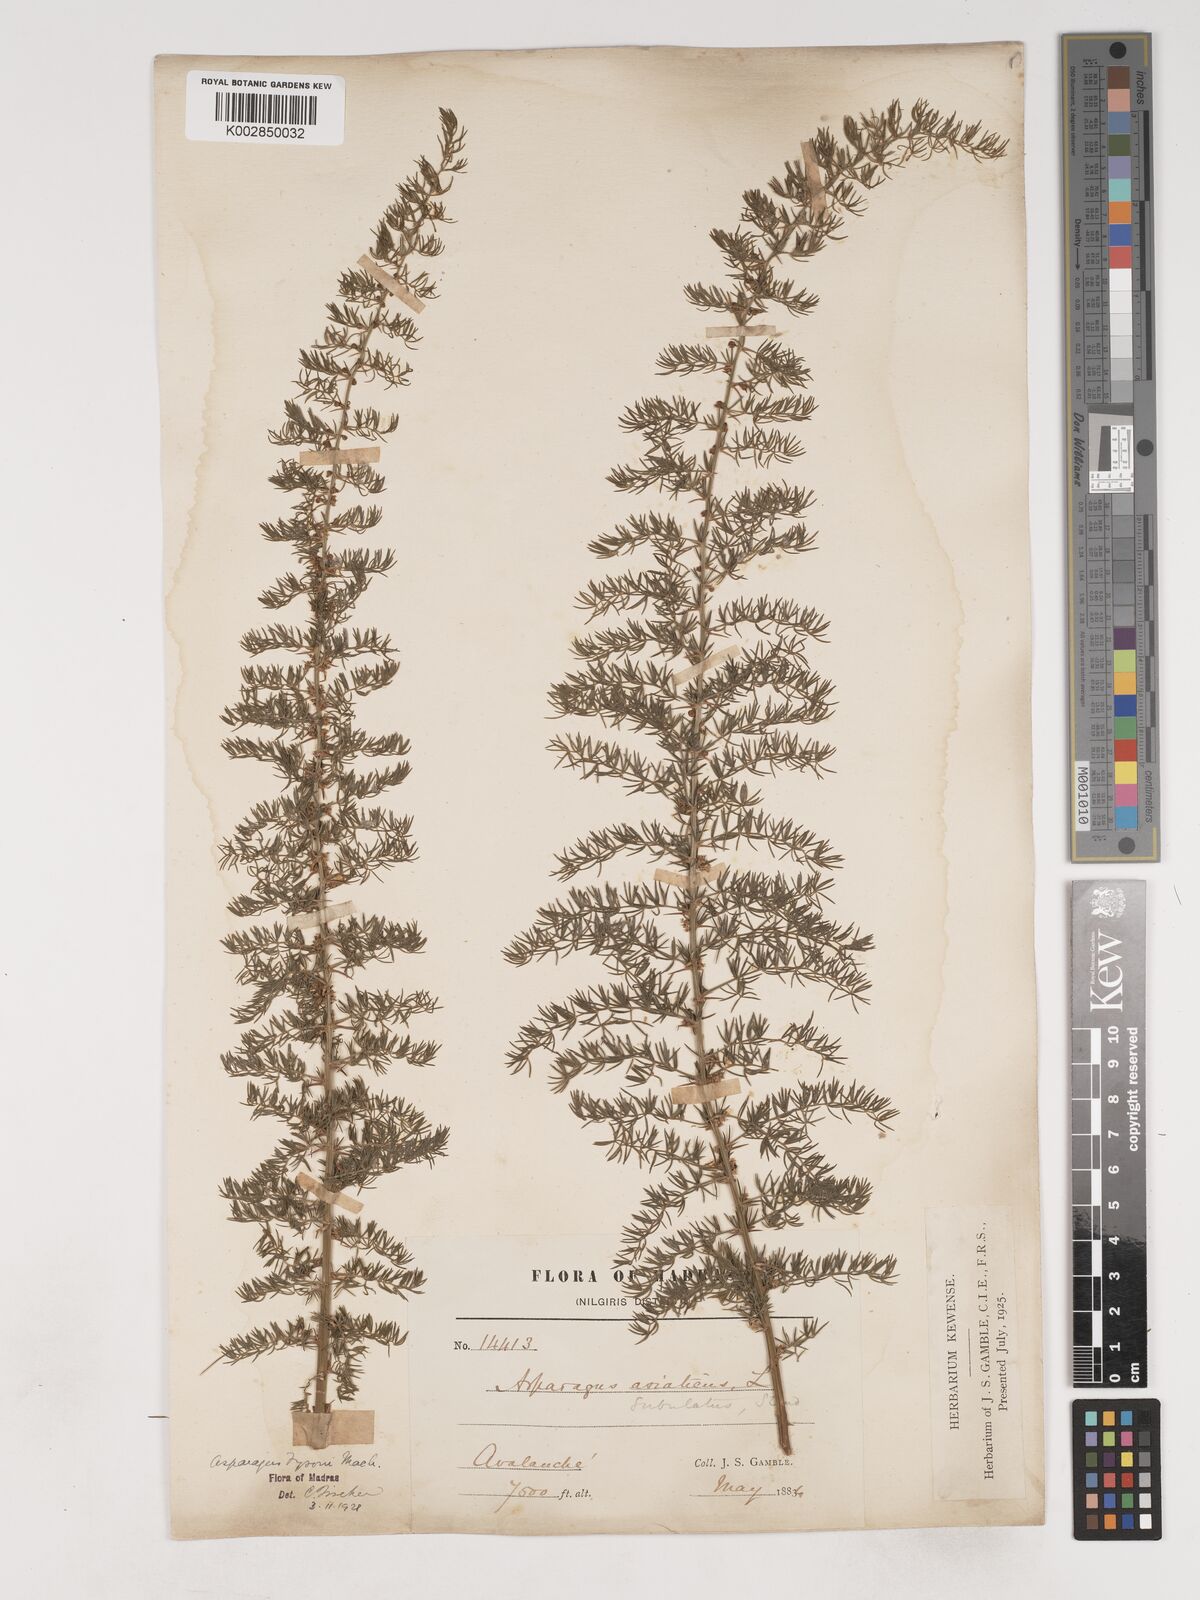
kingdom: Plantae
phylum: Tracheophyta
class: Liliopsida
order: Asparagales
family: Asparagaceae
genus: Asparagus
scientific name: Asparagus fysonii
